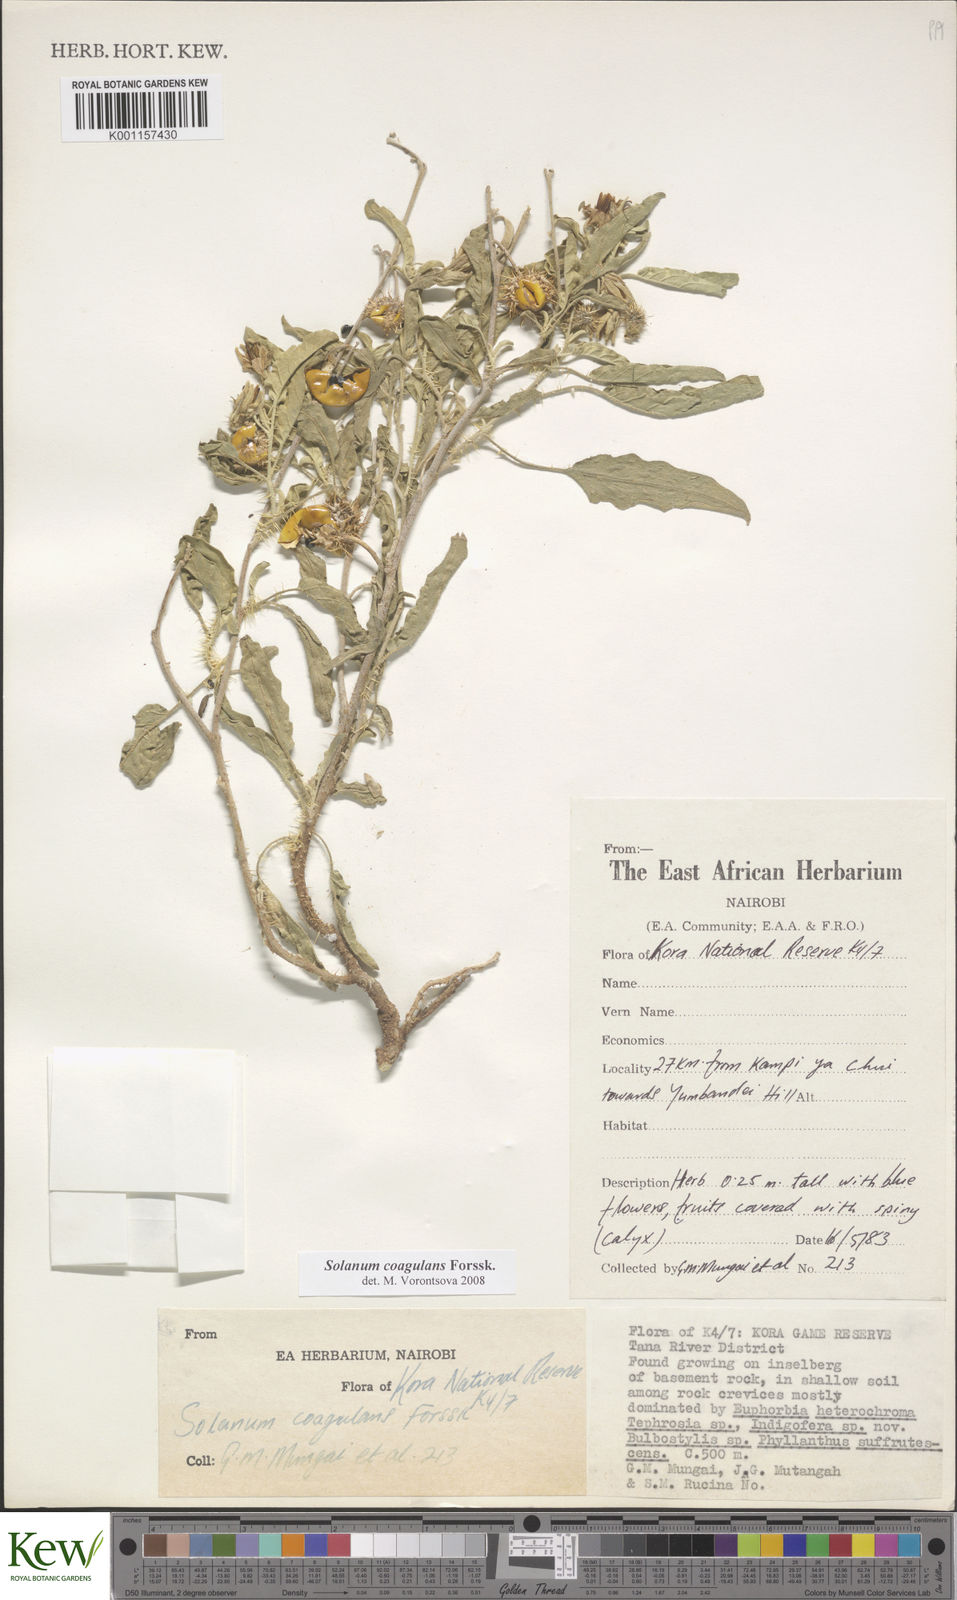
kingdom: Plantae
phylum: Tracheophyta
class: Magnoliopsida
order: Solanales
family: Solanaceae
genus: Solanum
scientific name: Solanum coagulans
